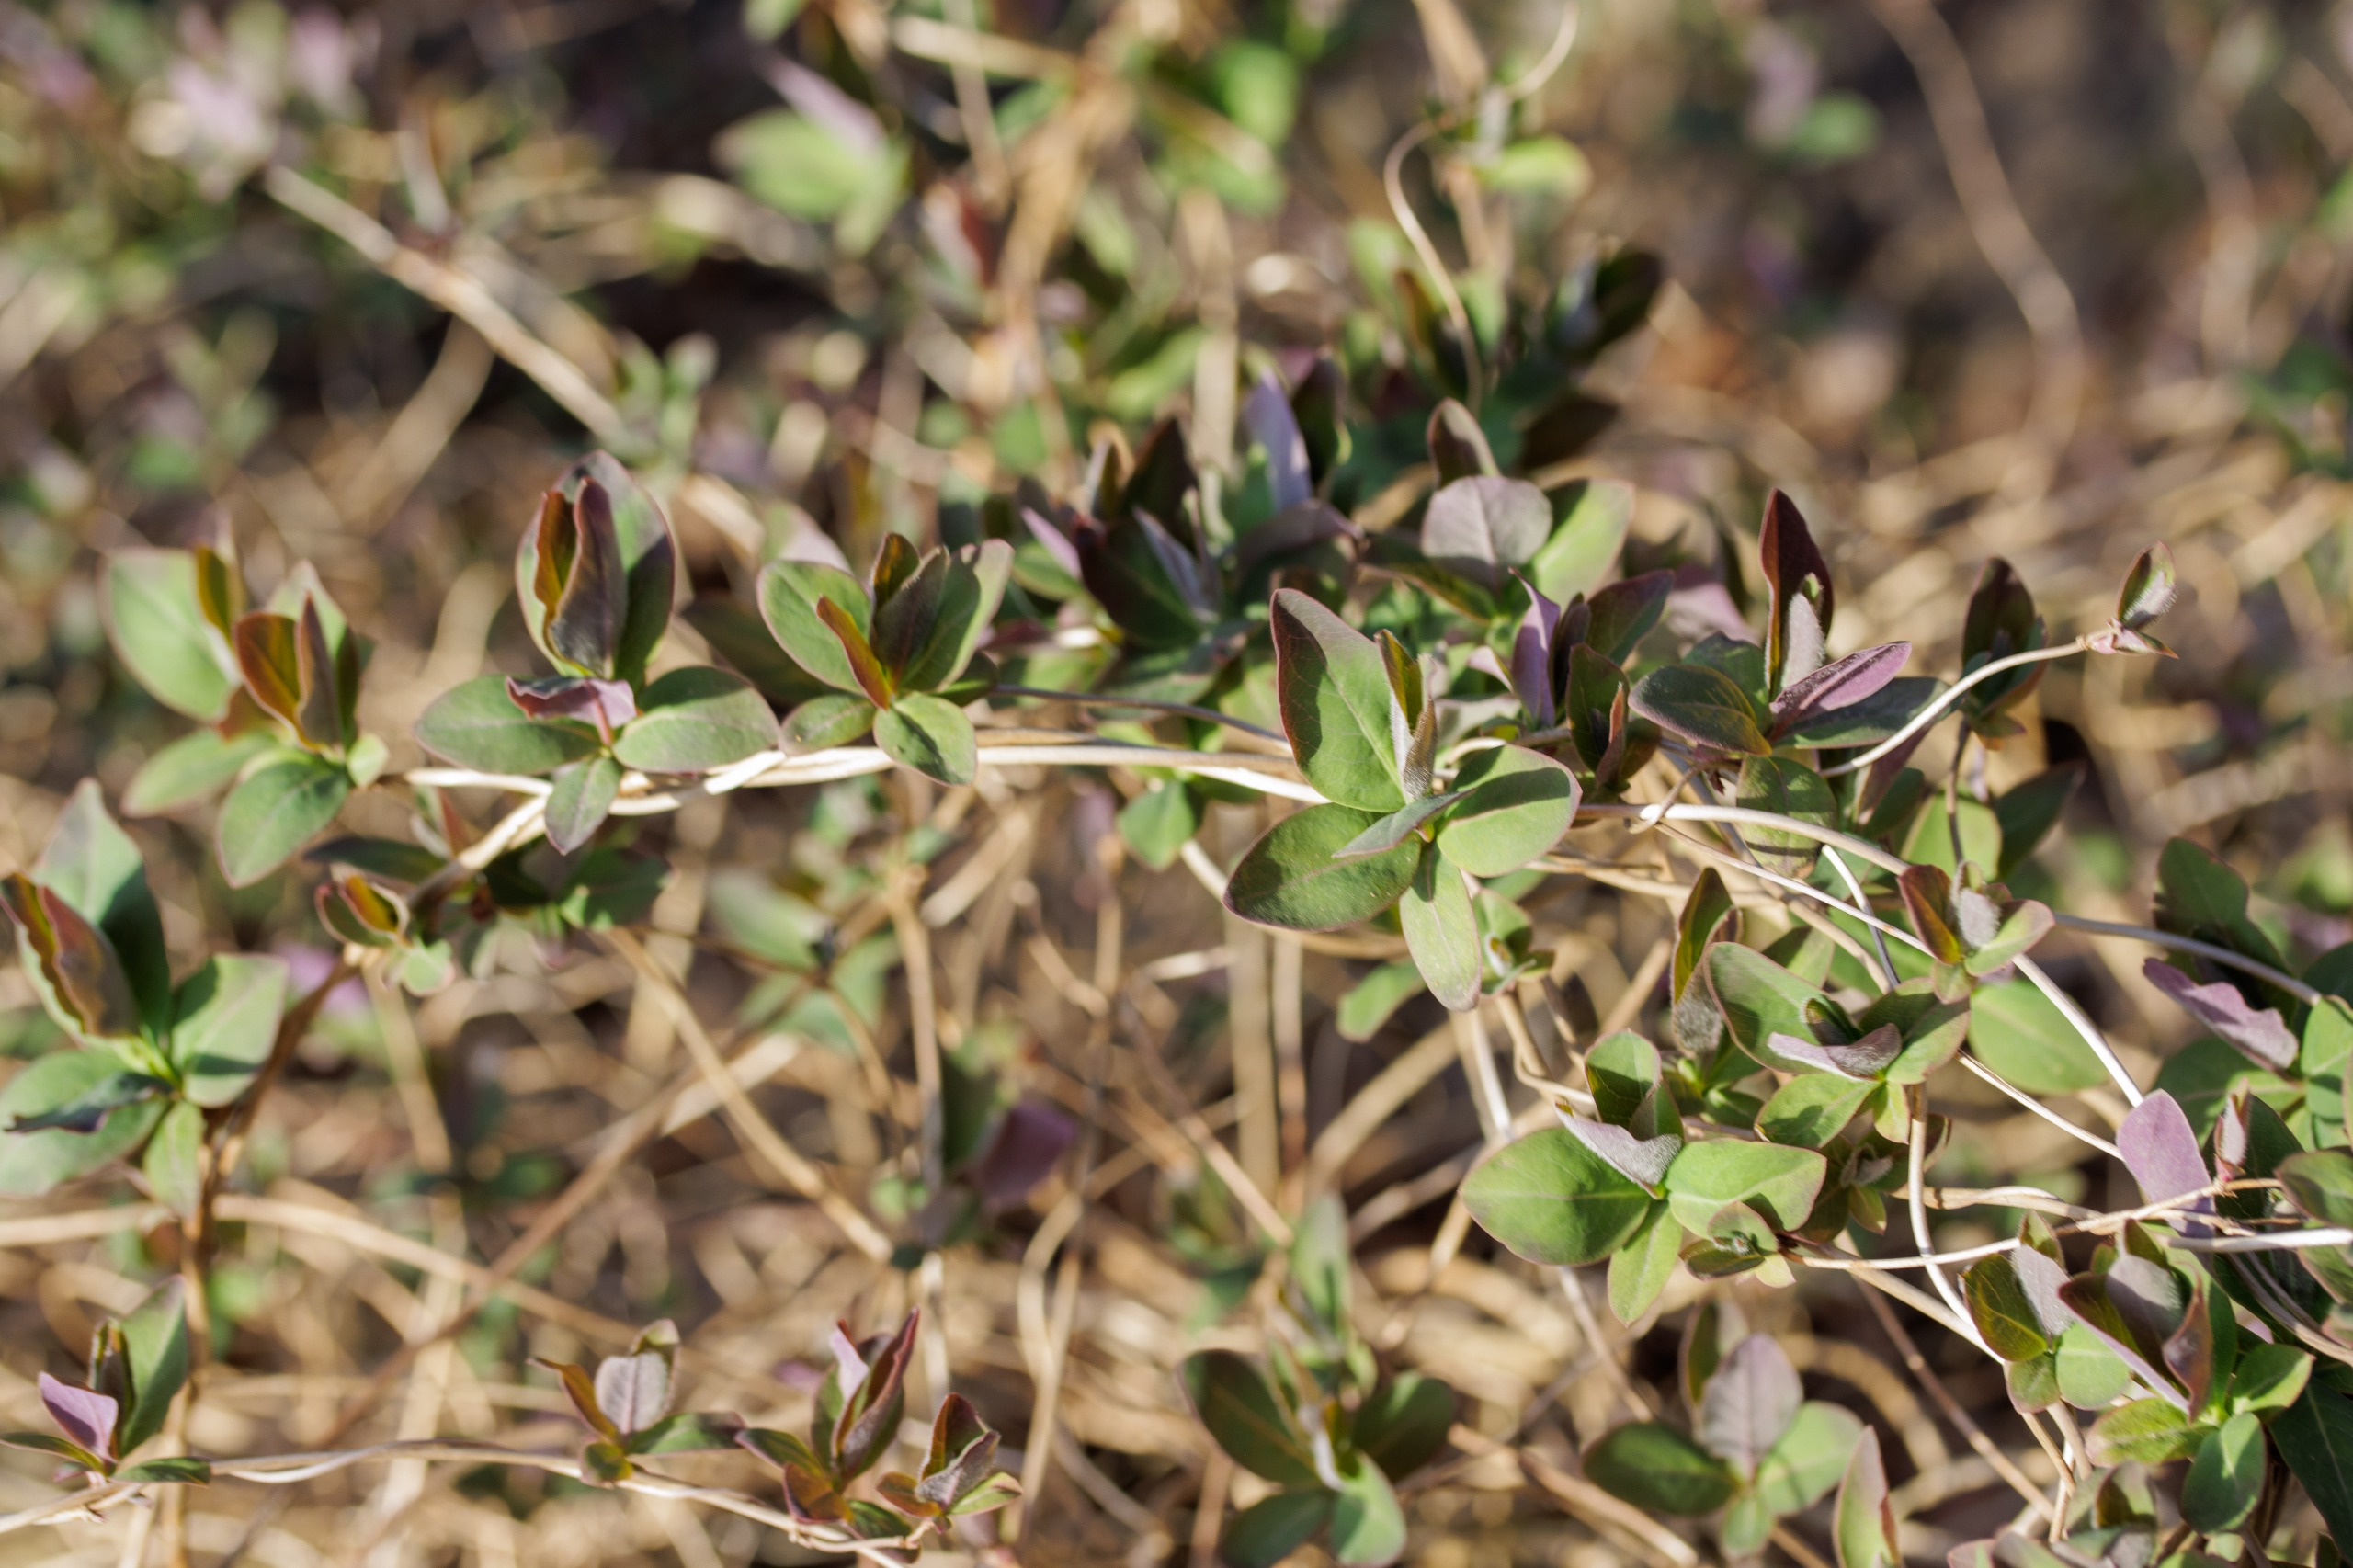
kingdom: Plantae
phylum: Tracheophyta
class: Magnoliopsida
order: Dipsacales
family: Caprifoliaceae
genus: Lonicera
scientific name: Lonicera periclymenum
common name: Almindelig gedeblad
